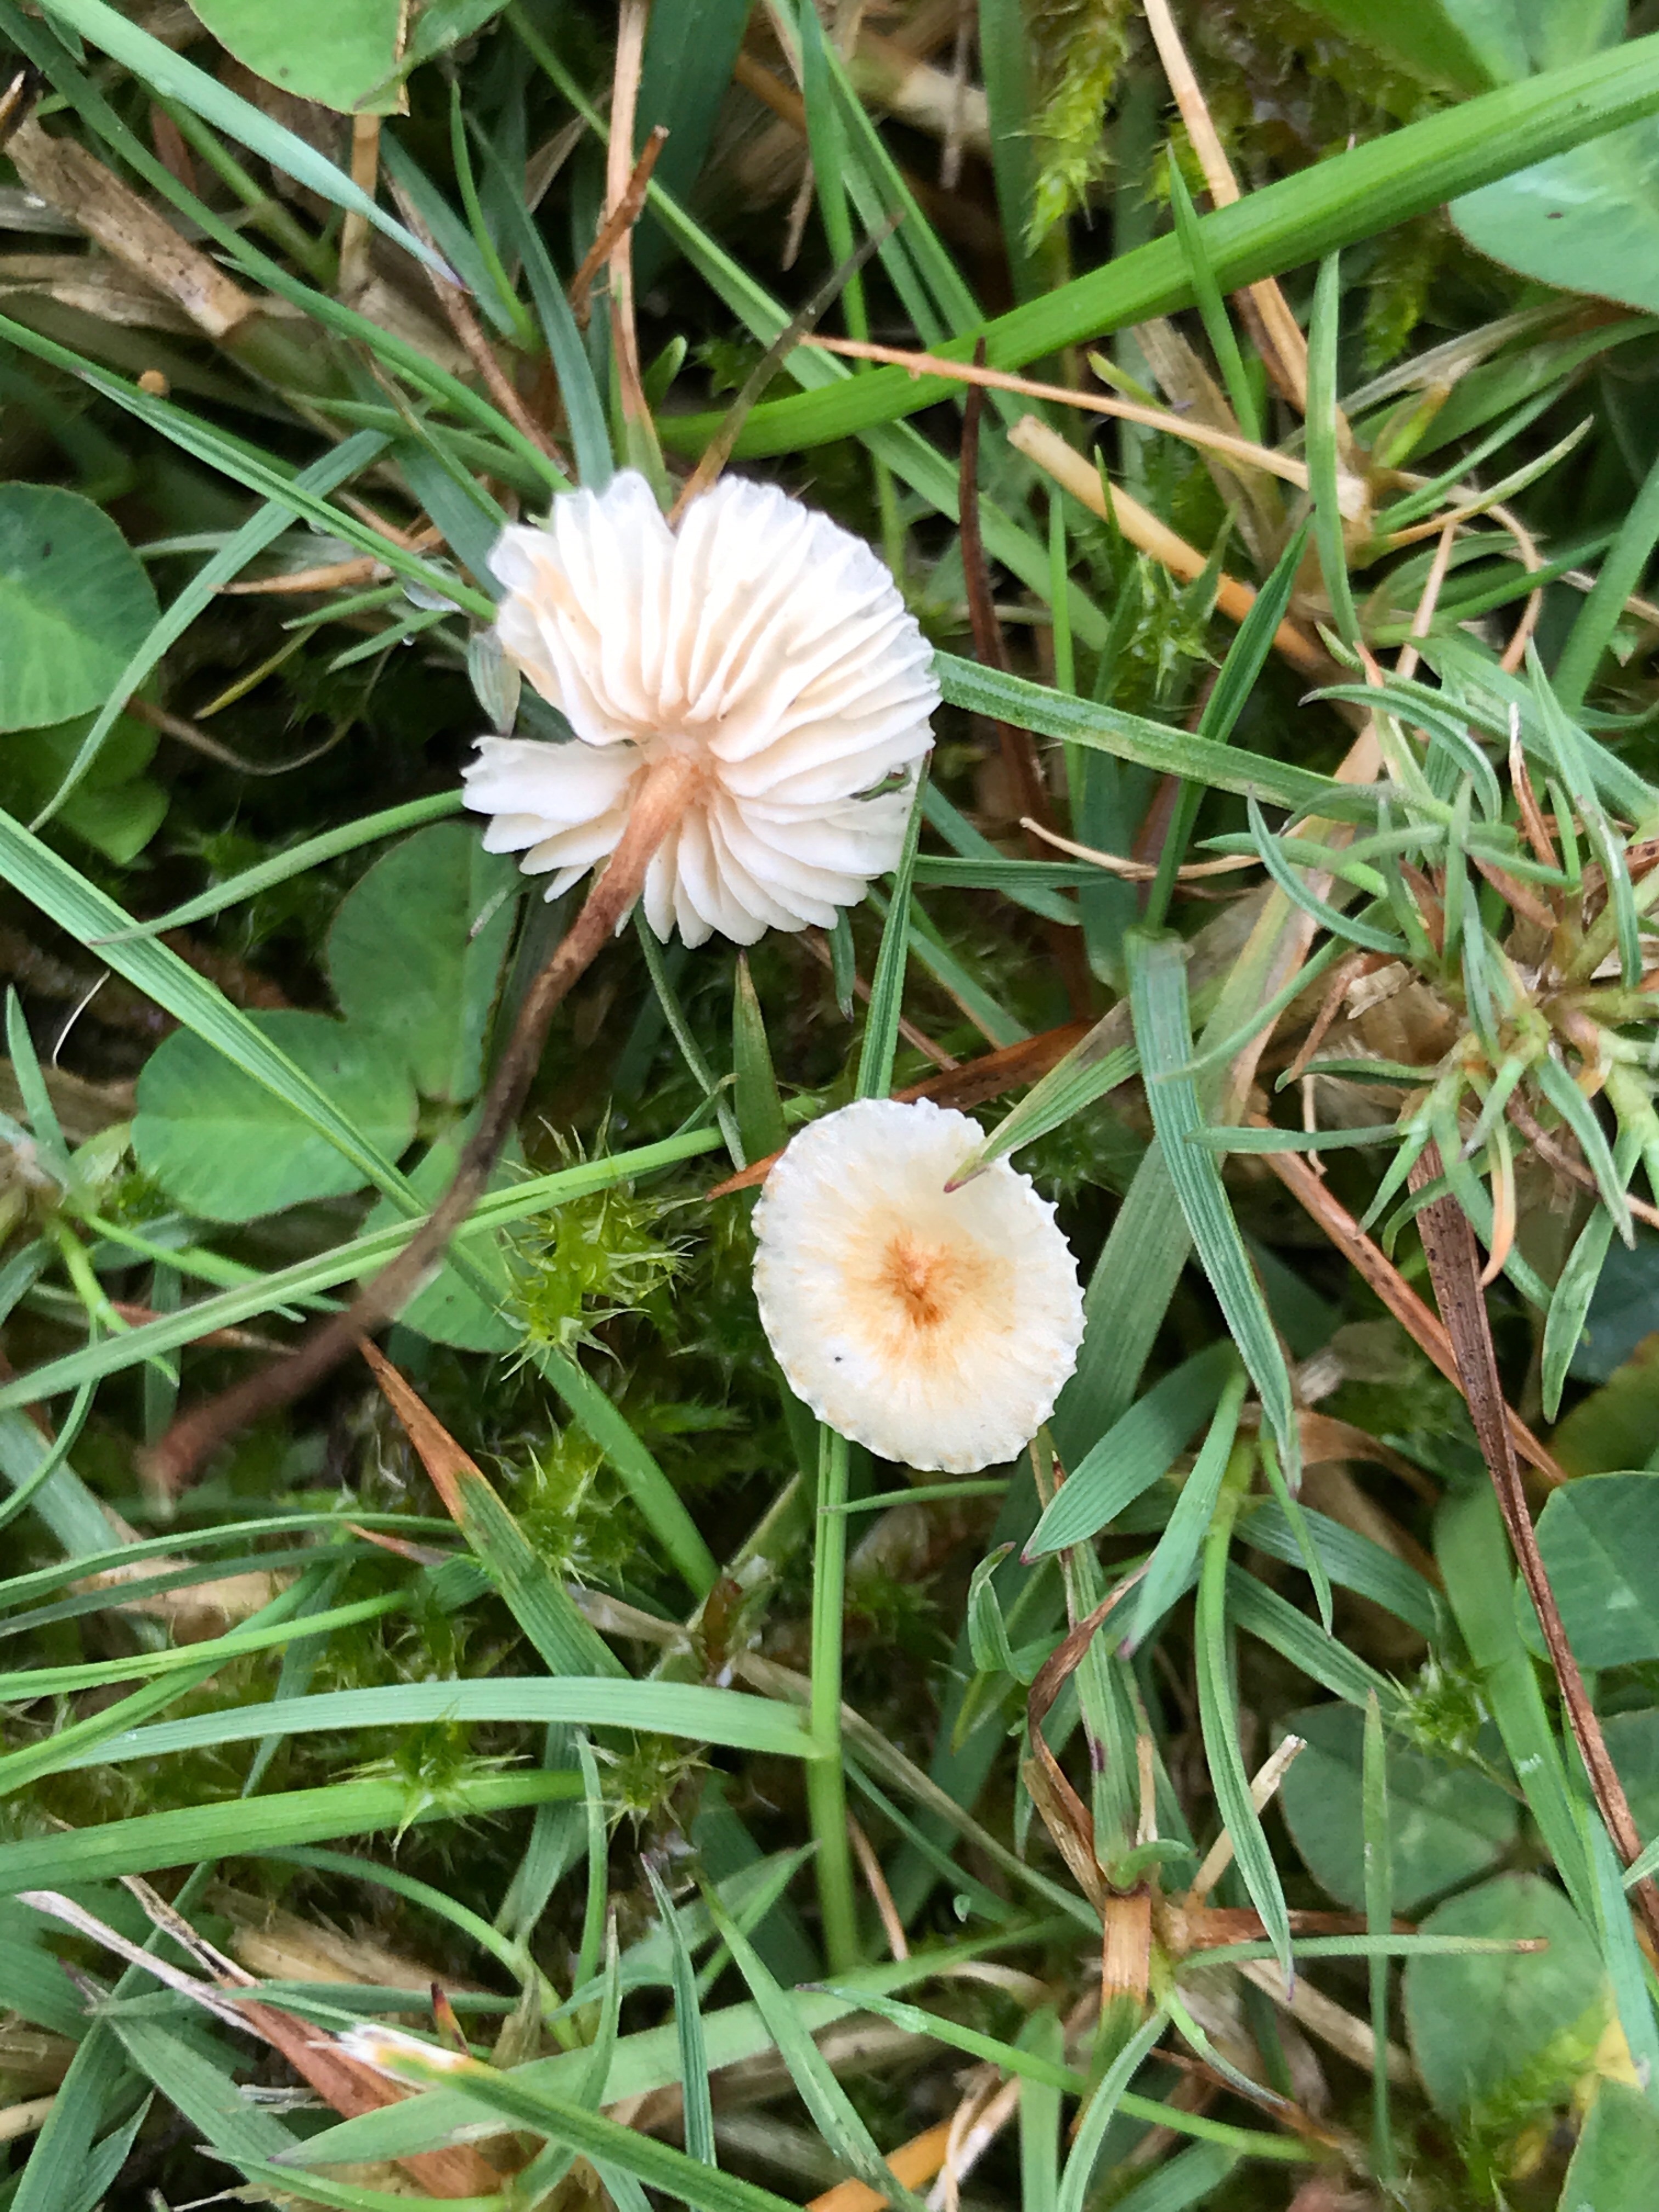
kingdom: Fungi
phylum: Basidiomycota
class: Agaricomycetes
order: Agaricales
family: Marasmiaceae
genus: Crinipellis
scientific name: Crinipellis scabella
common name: børstefod
